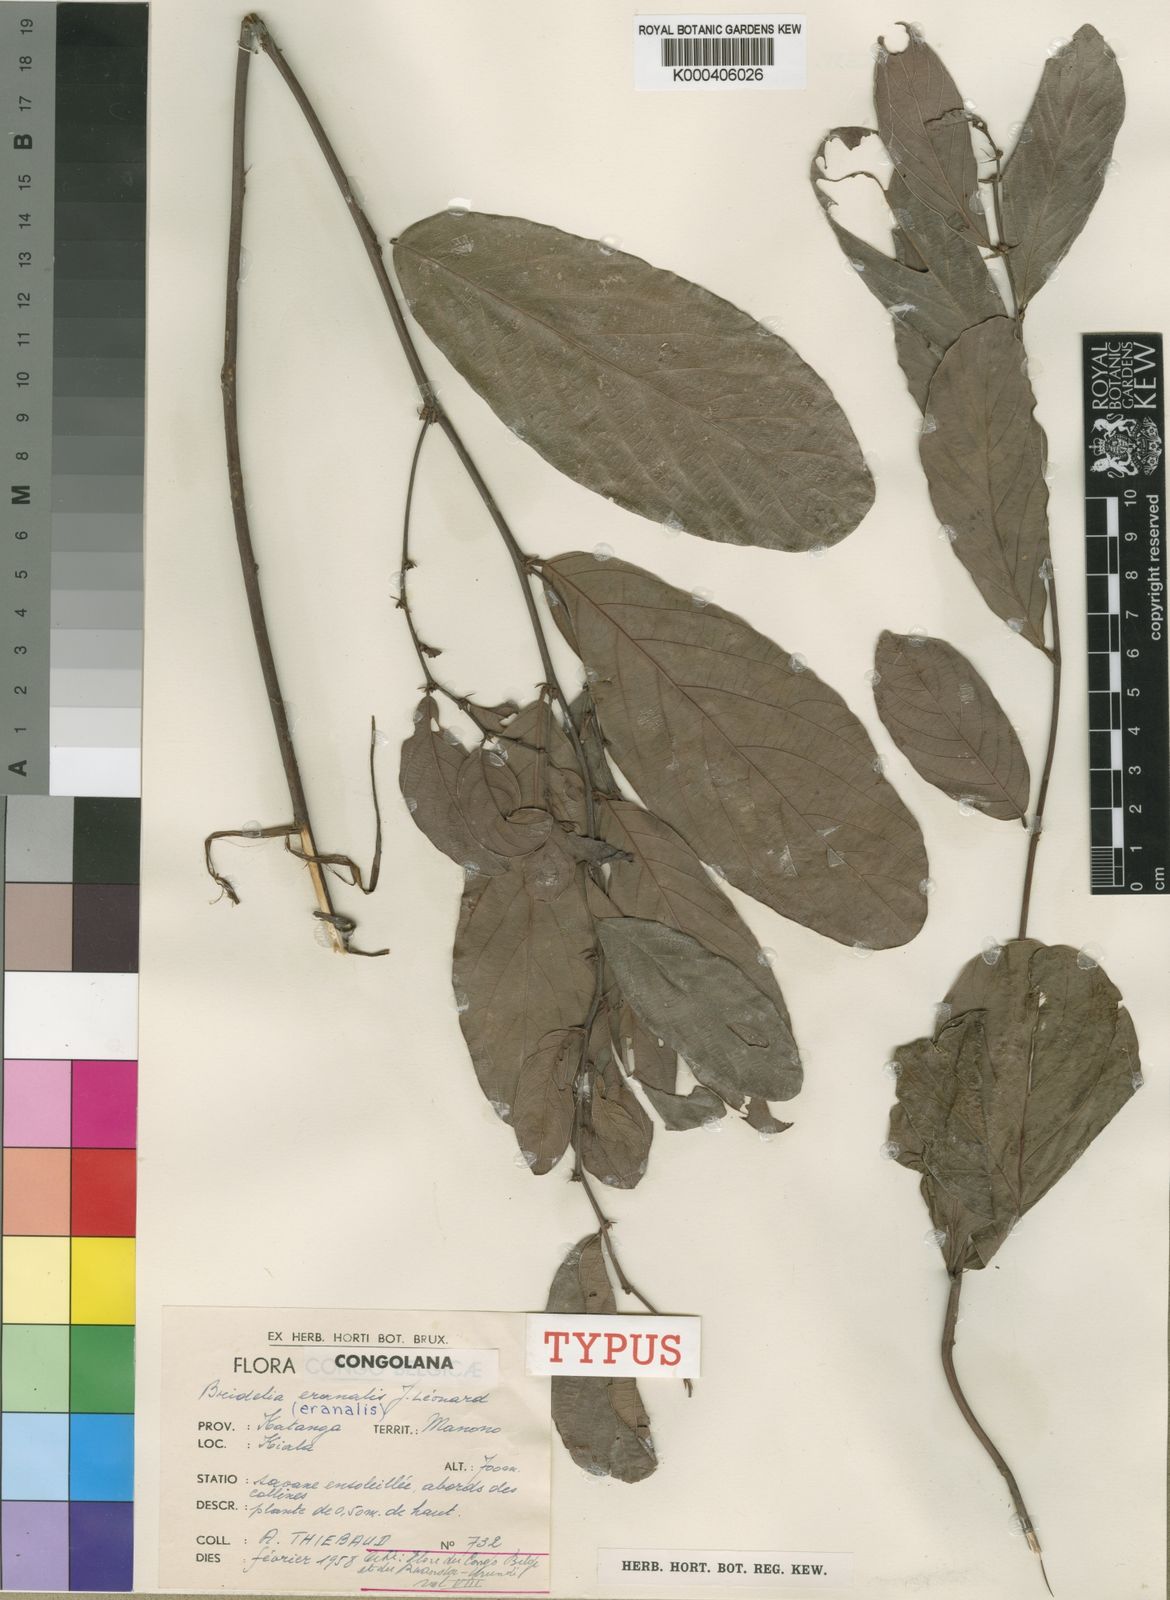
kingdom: Plantae
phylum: Tracheophyta
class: Magnoliopsida
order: Malpighiales
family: Phyllanthaceae
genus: Bridelia
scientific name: Bridelia
